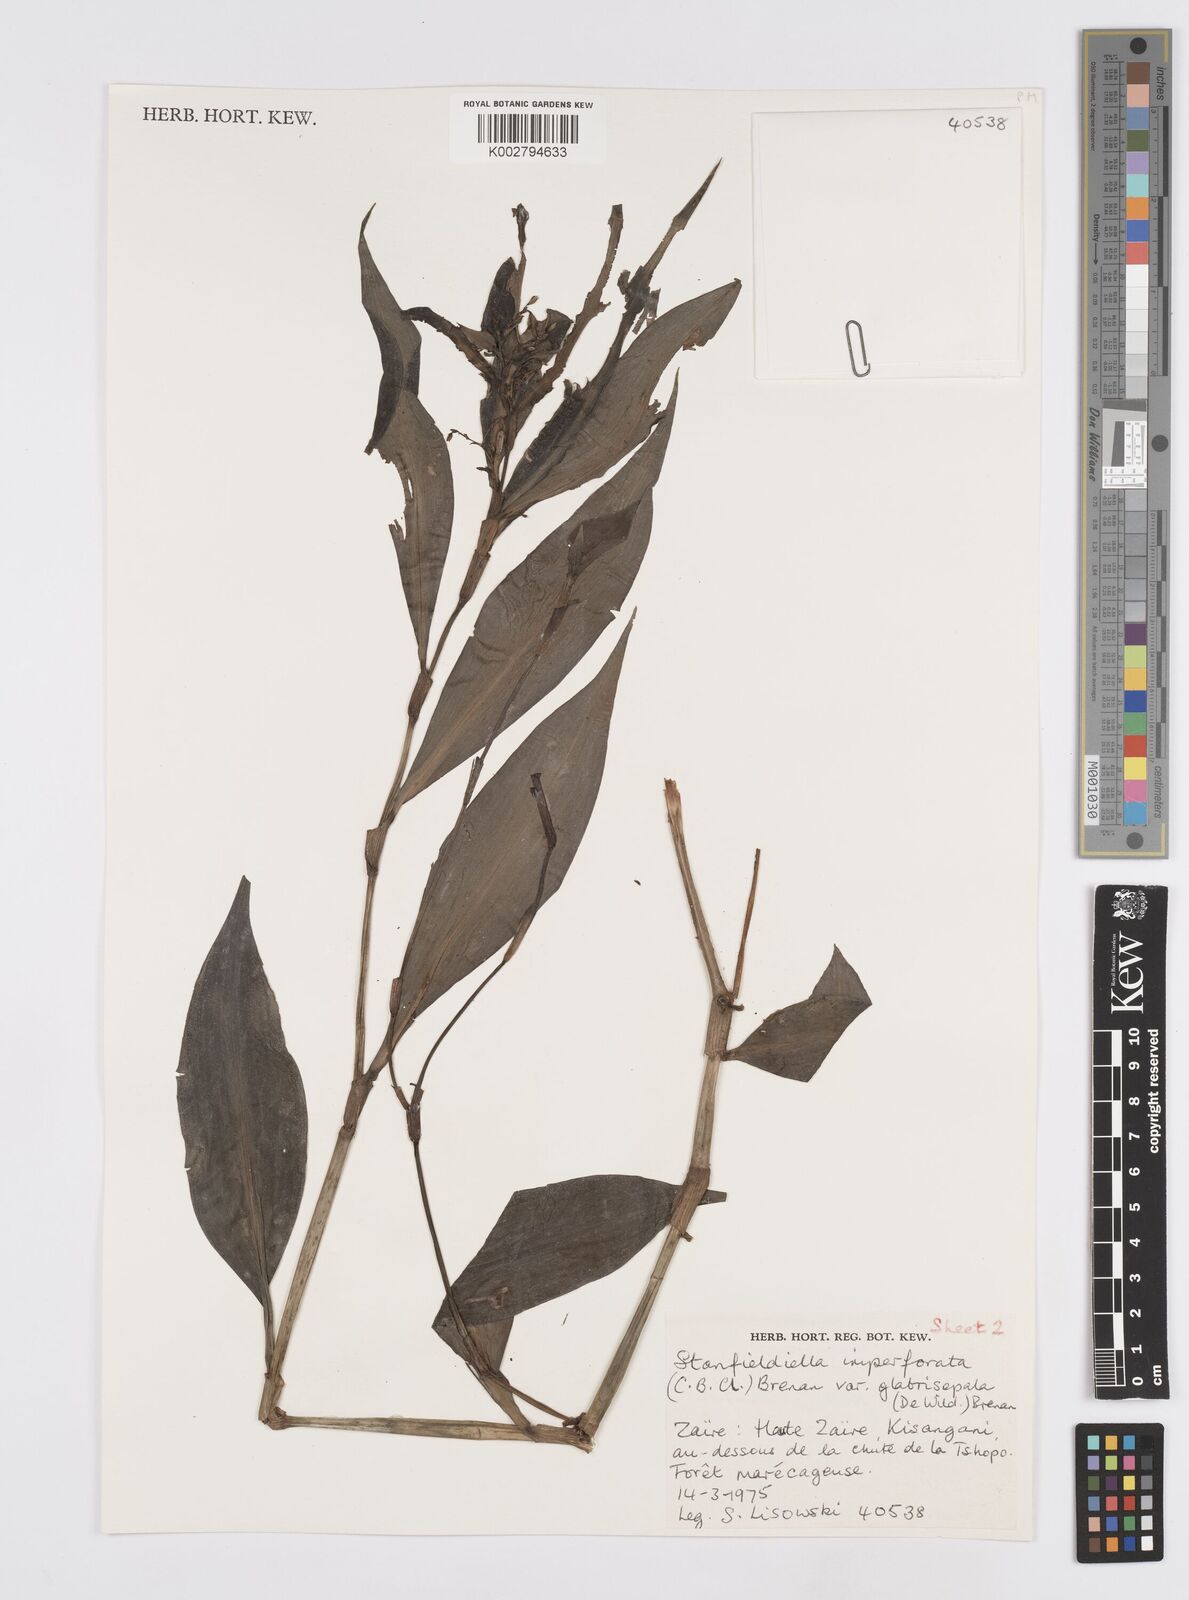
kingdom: Plantae
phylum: Tracheophyta
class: Liliopsida
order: Commelinales
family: Commelinaceae
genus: Stanfieldiella
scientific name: Stanfieldiella imperforata
